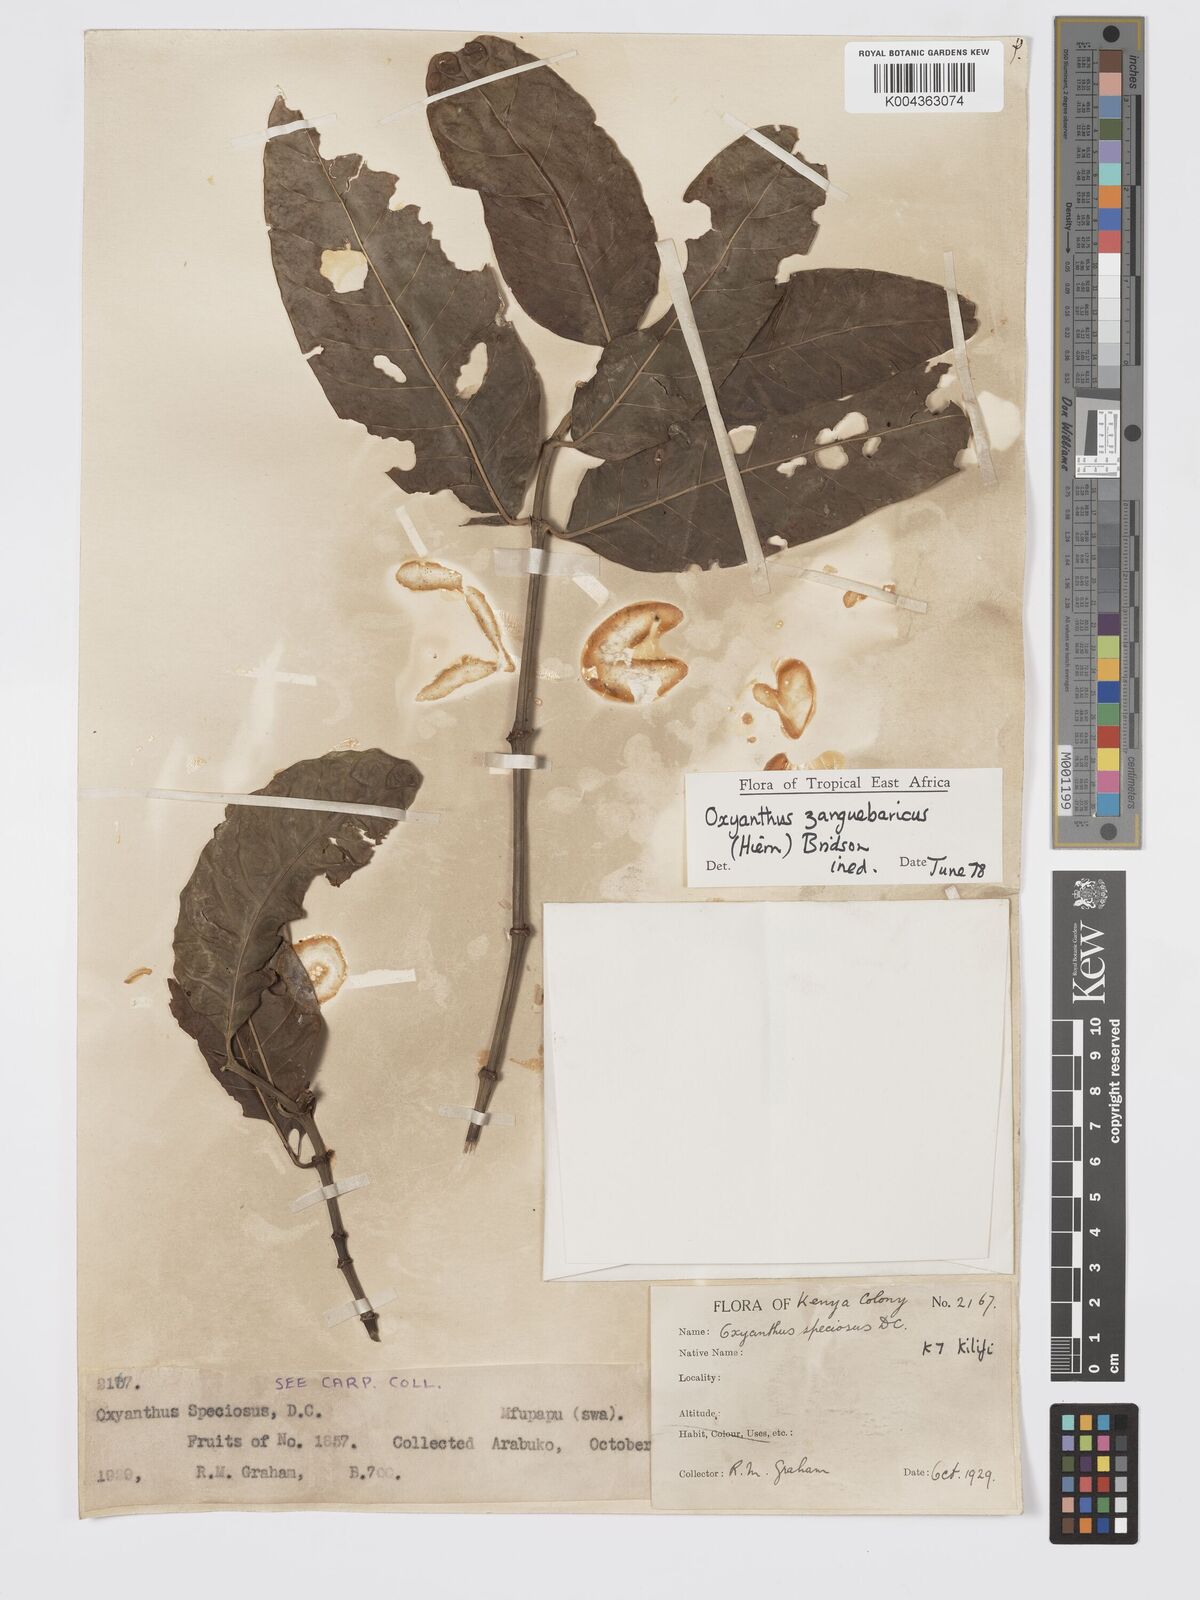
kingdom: Plantae
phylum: Tracheophyta
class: Magnoliopsida
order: Gentianales
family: Rubiaceae
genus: Oxyanthus
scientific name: Oxyanthus zanguebaricus
